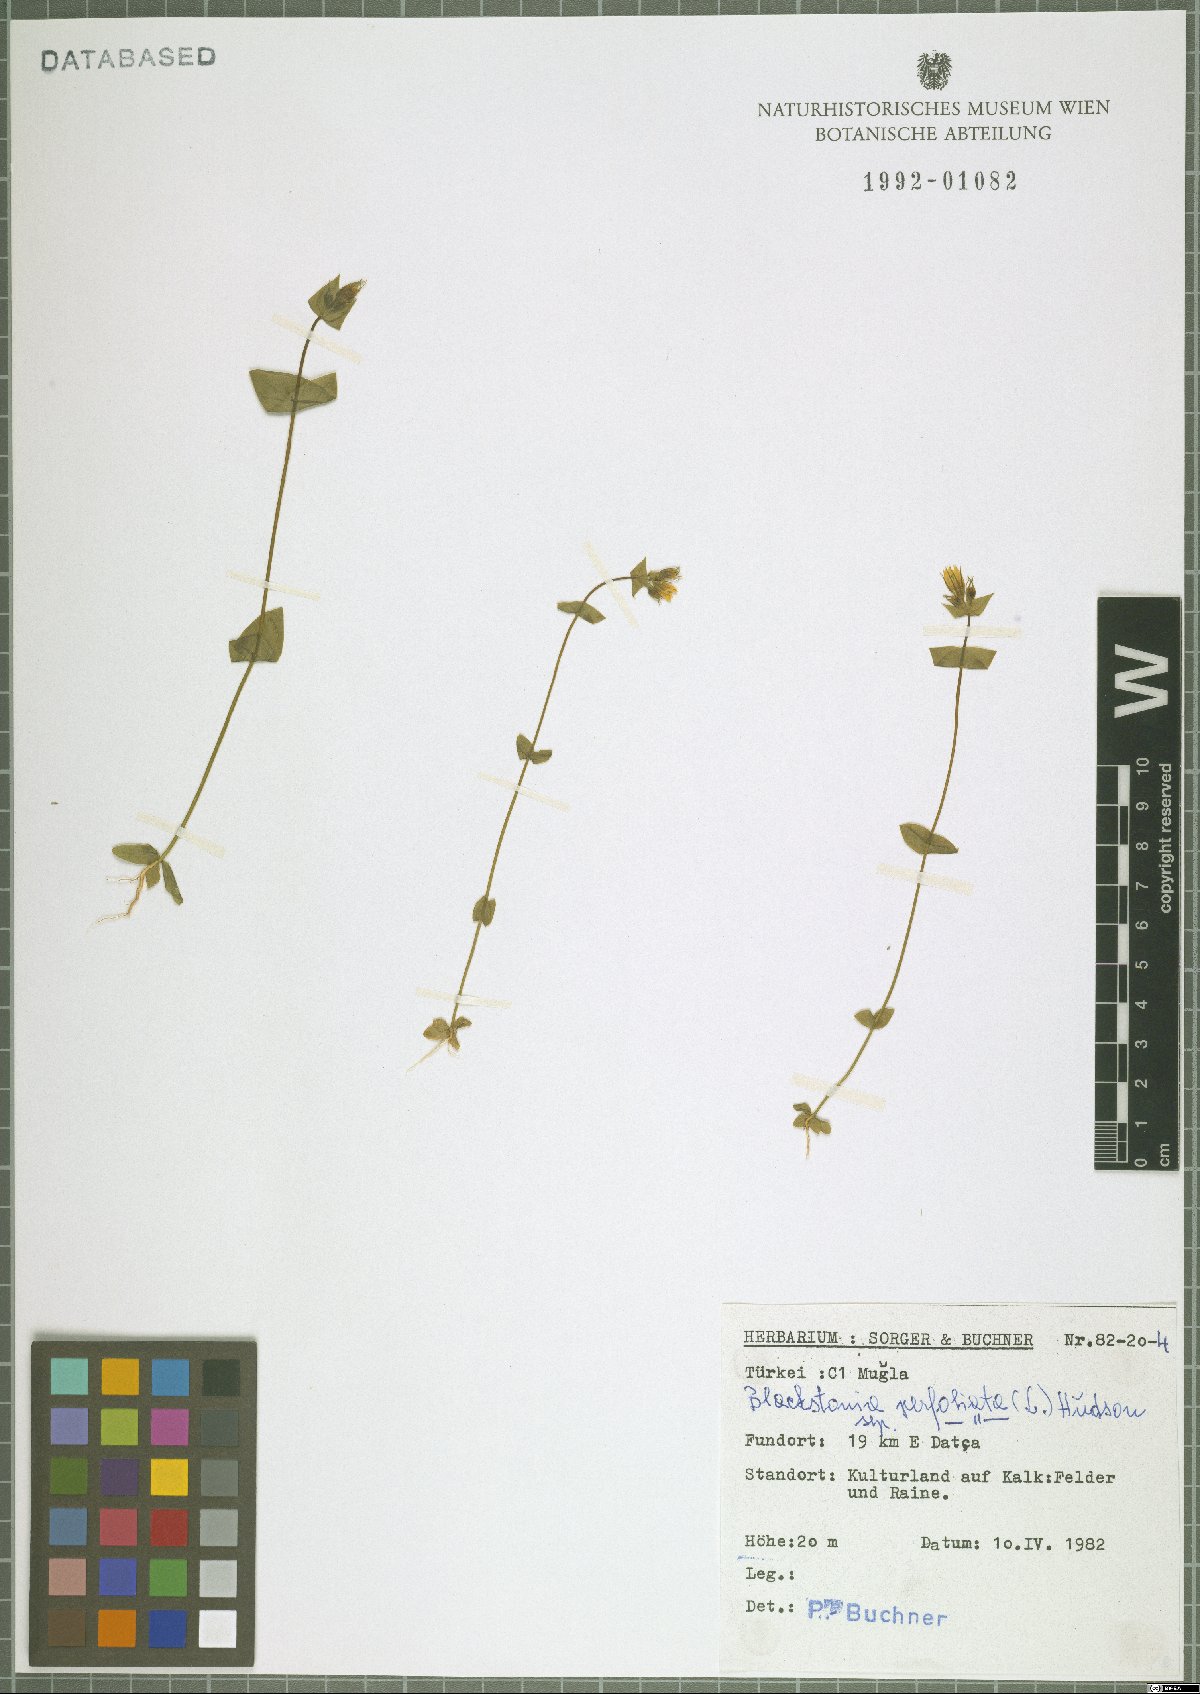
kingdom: Plantae
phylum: Tracheophyta
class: Magnoliopsida
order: Gentianales
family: Gentianaceae
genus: Blackstonia
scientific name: Blackstonia perfoliata
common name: Yellow-wort
